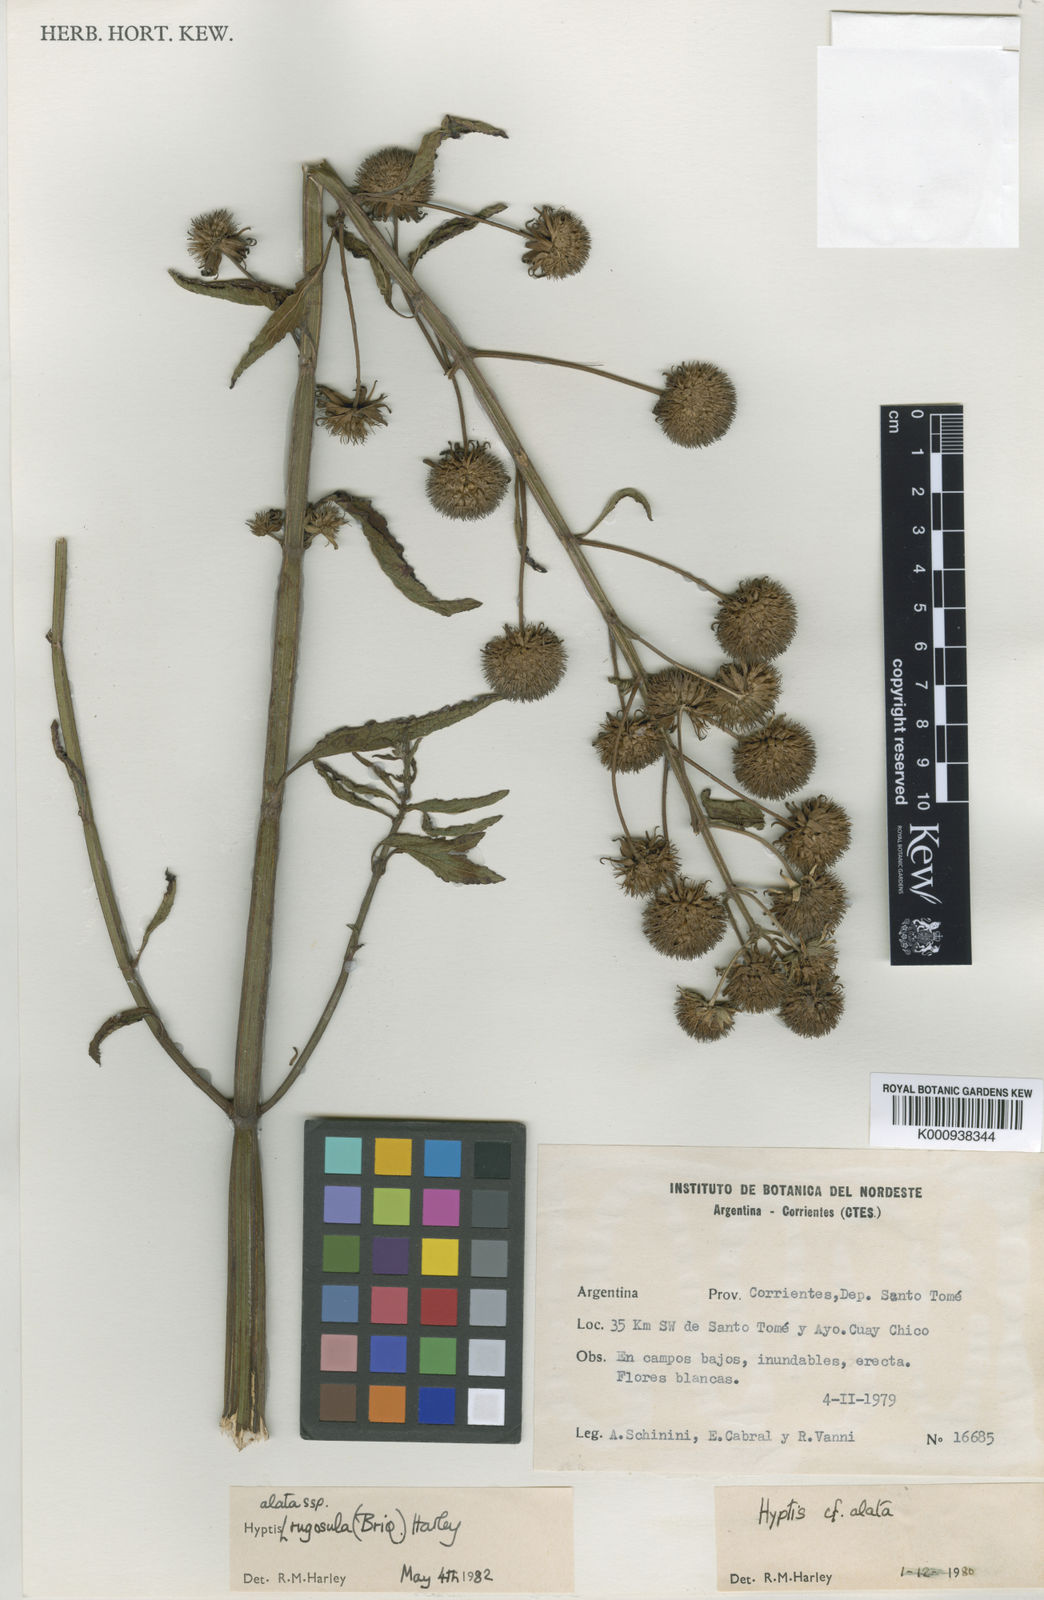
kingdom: Plantae
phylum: Tracheophyta
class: Magnoliopsida
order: Lamiales
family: Lamiaceae
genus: Hyptis
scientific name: Hyptis alata
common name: Cluster bush-mint
